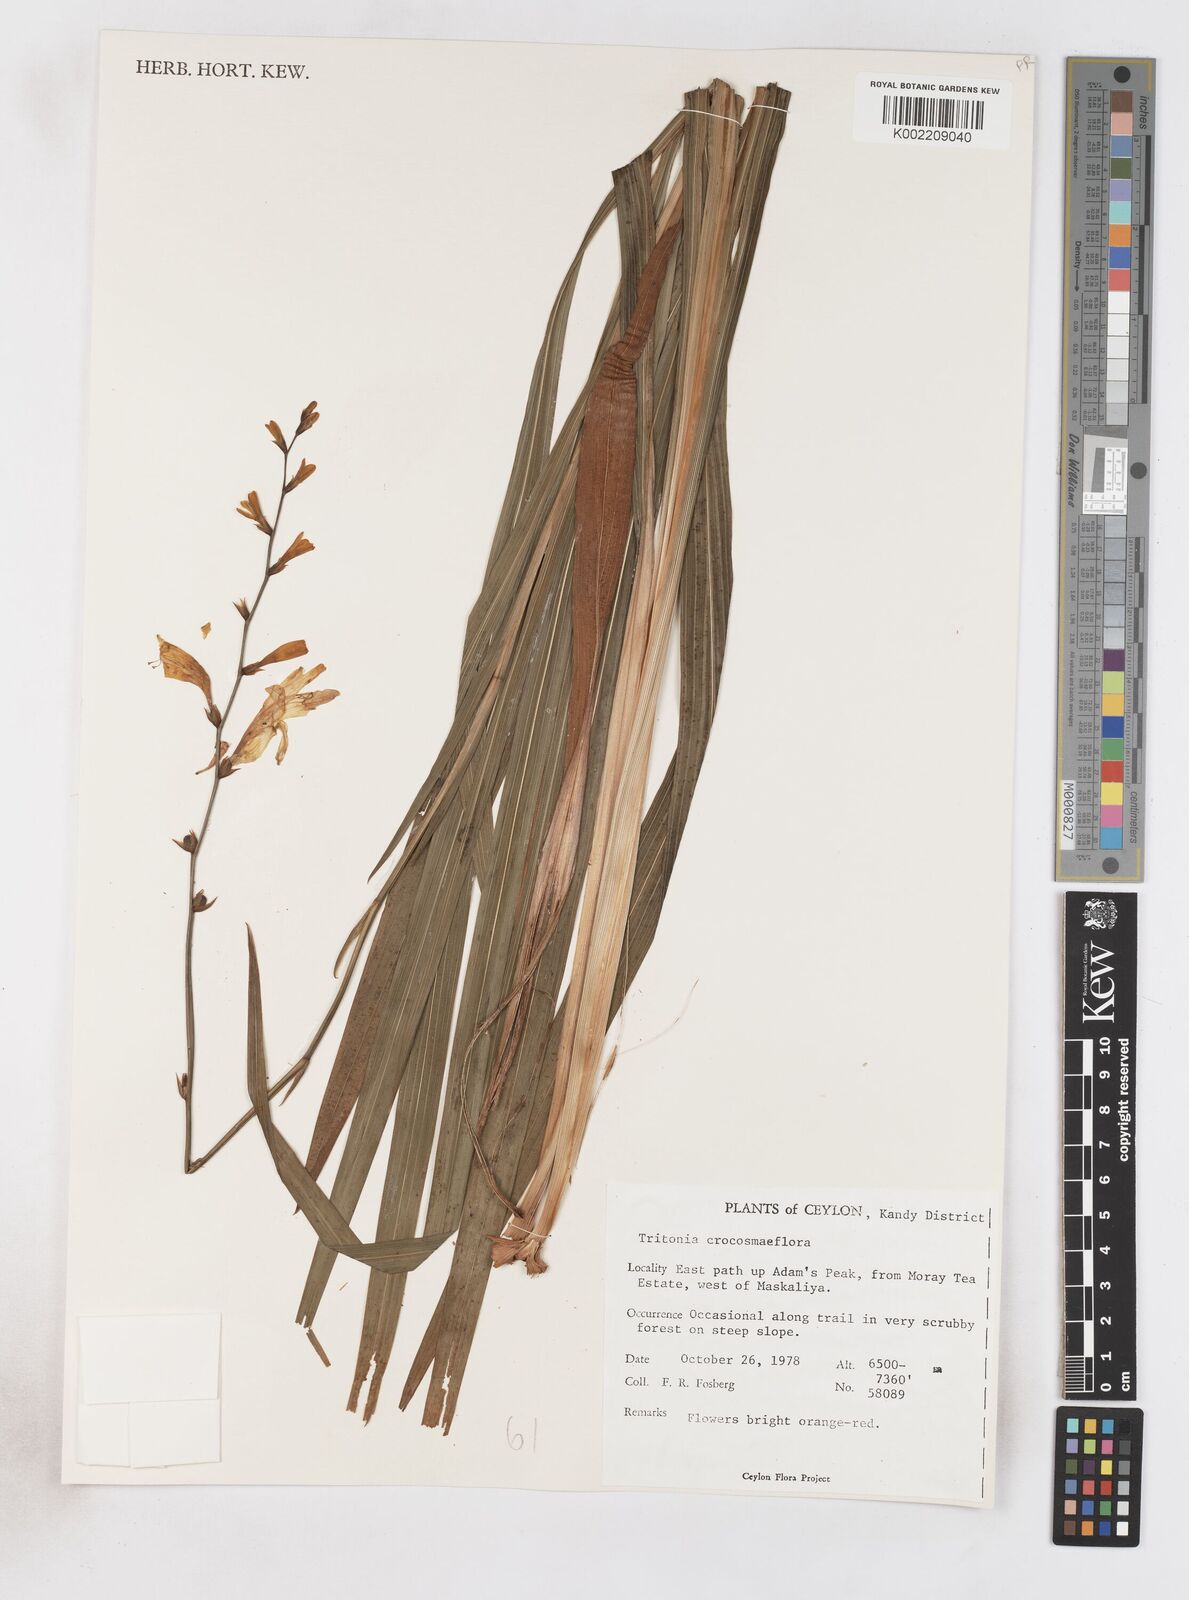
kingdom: Plantae
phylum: Tracheophyta
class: Liliopsida
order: Asparagales
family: Iridaceae
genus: Crocosmia
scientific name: Crocosmia crocosmiiflora
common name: Montbretia
